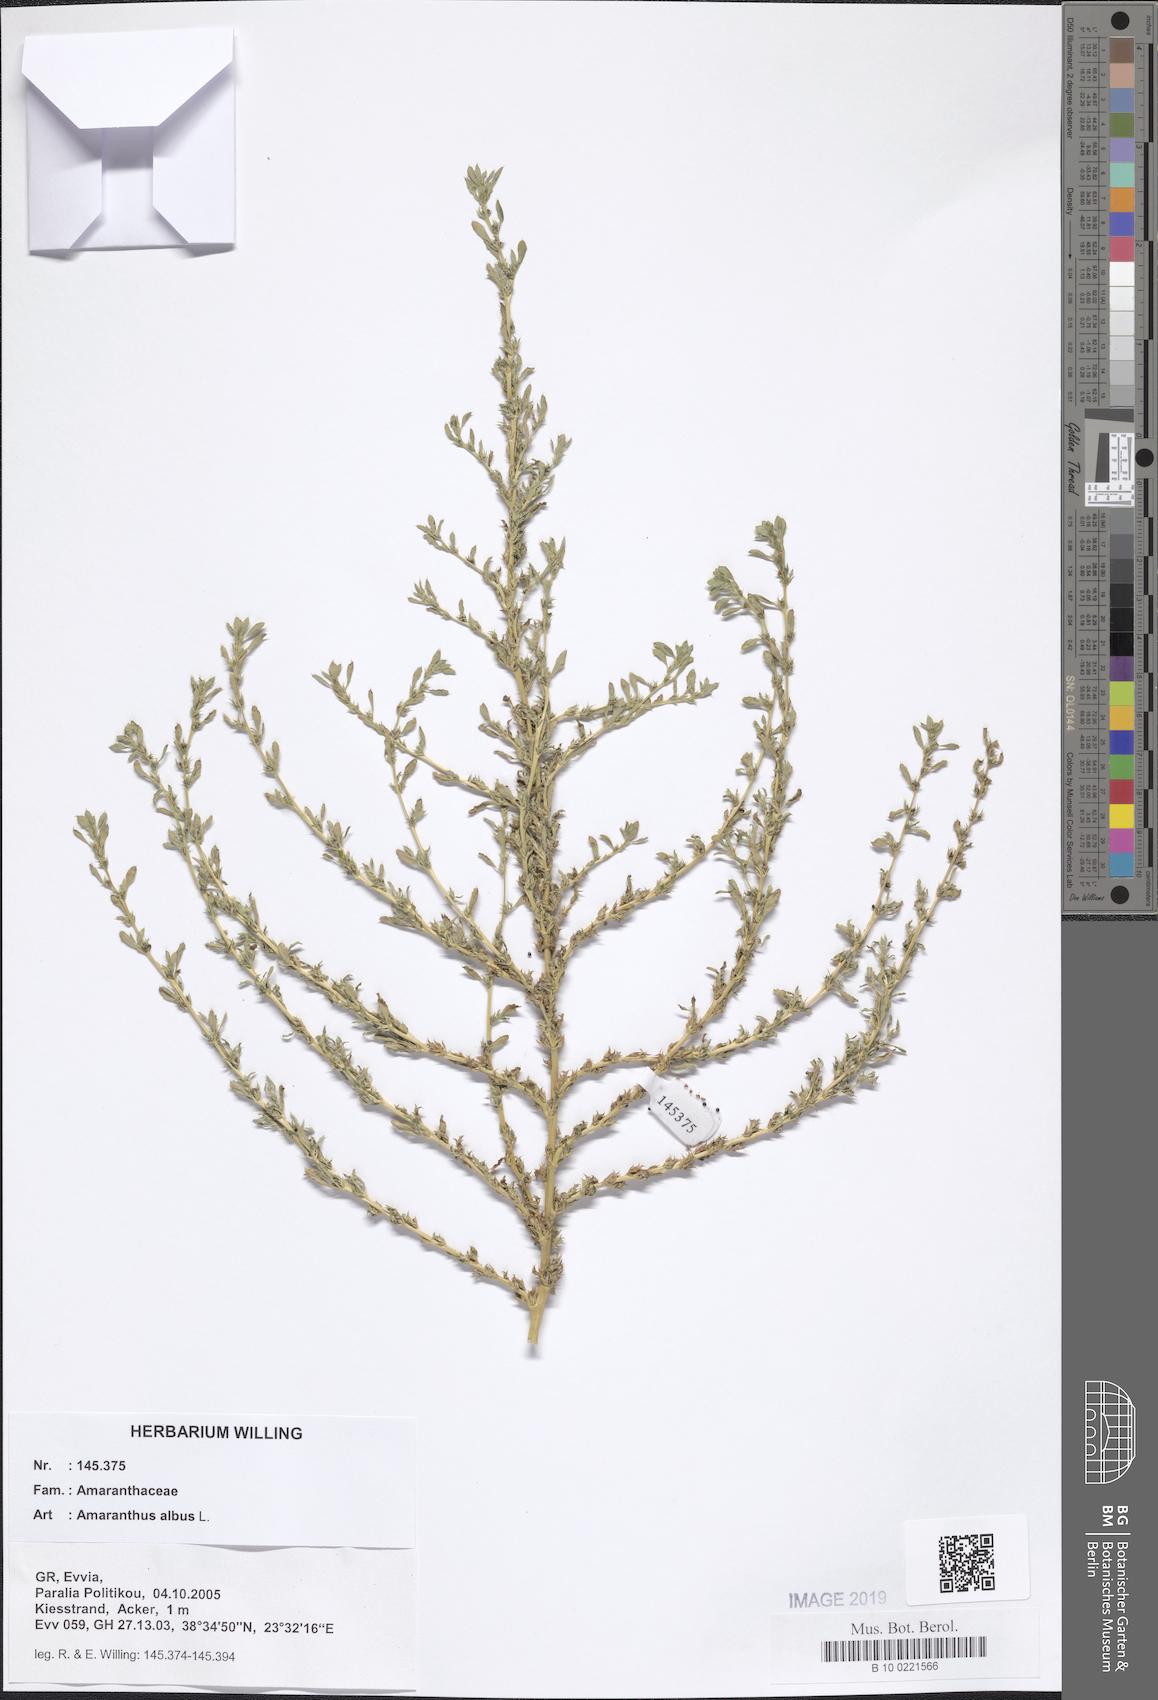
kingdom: Plantae
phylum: Tracheophyta
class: Magnoliopsida
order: Caryophyllales
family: Amaranthaceae
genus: Amaranthus
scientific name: Amaranthus albus
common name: White pigweed
